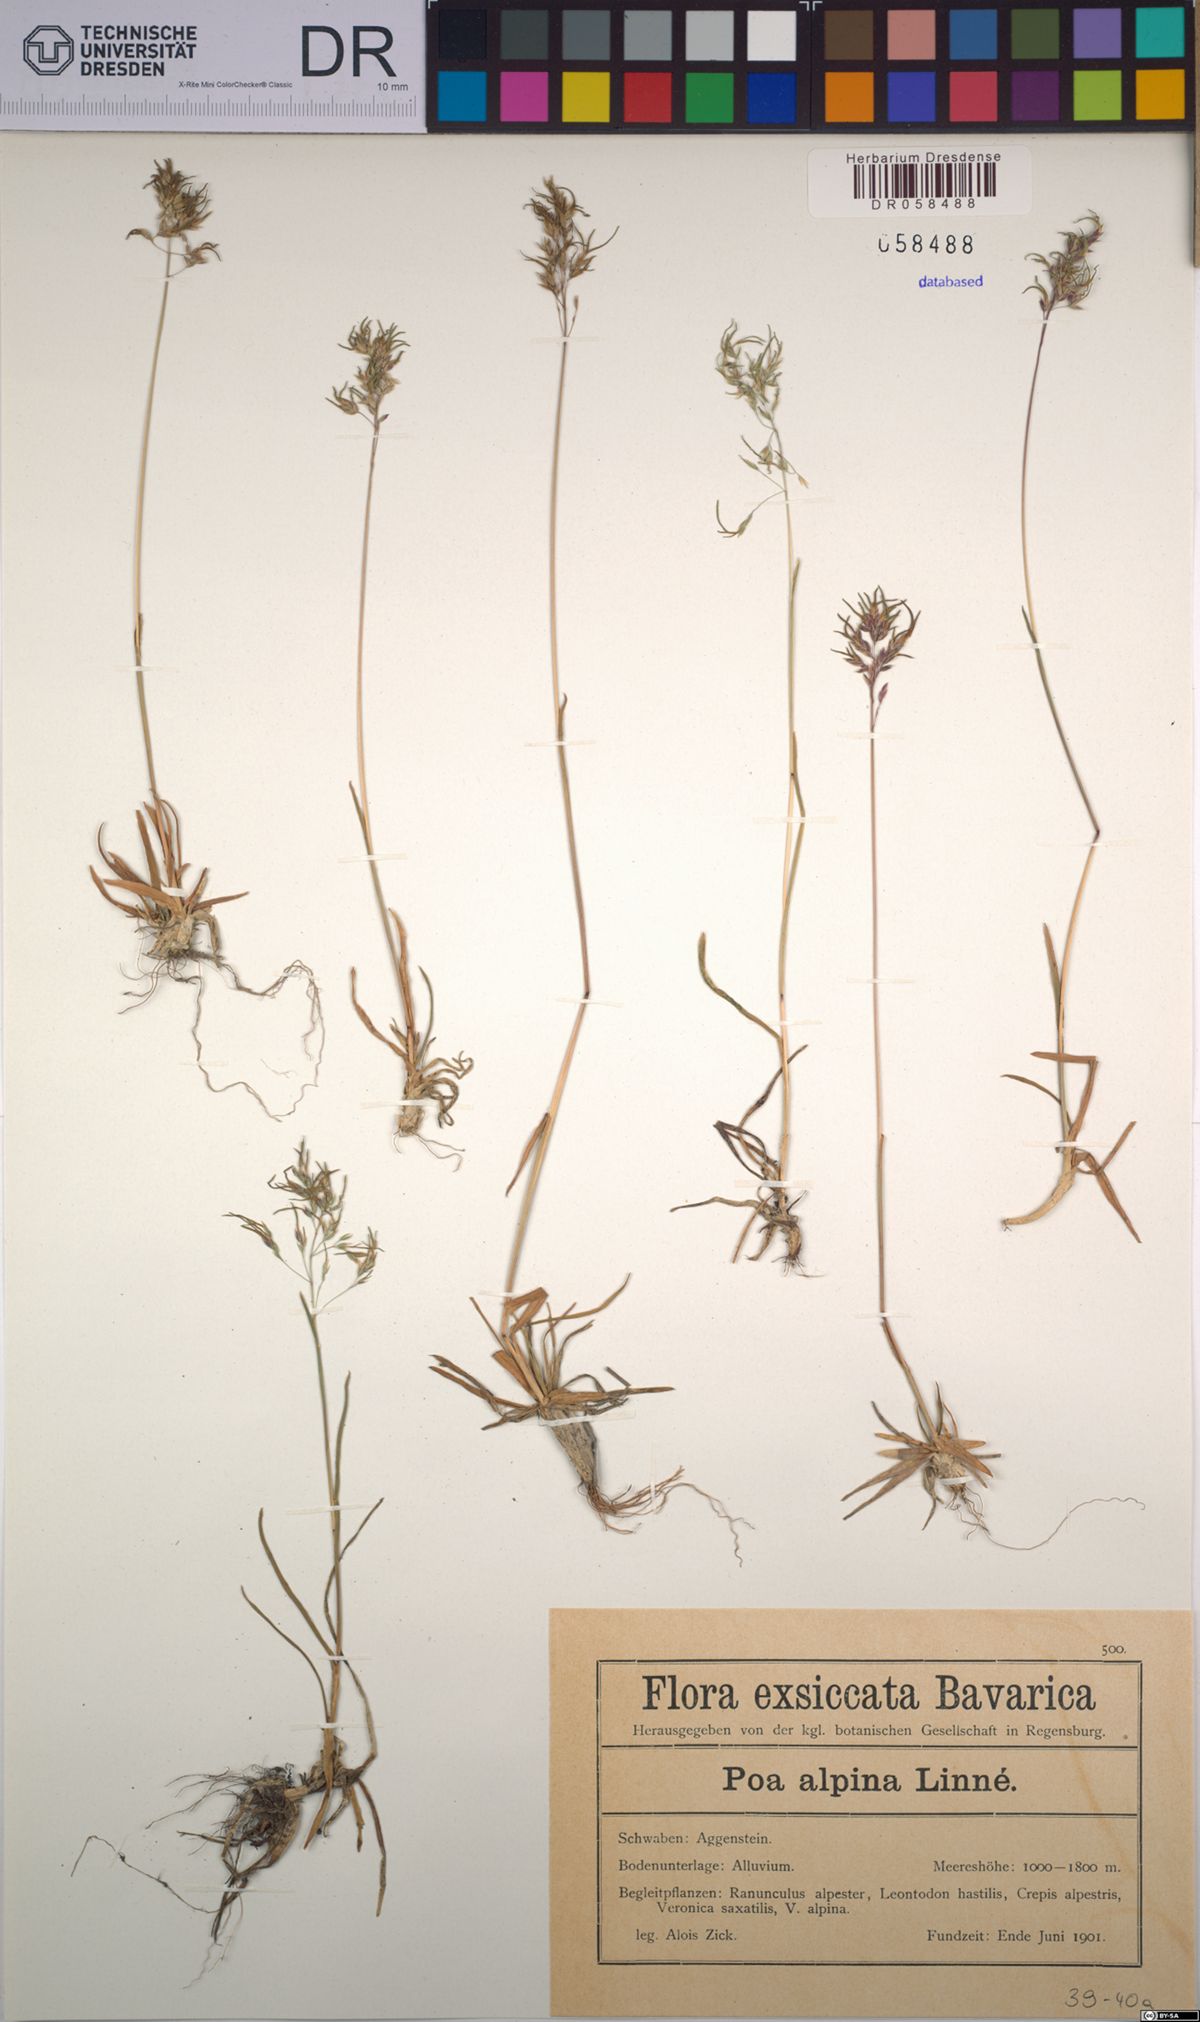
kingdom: Plantae
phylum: Tracheophyta
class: Liliopsida
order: Poales
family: Poaceae
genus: Poa
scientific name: Poa alpina
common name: Alpine bluegrass
